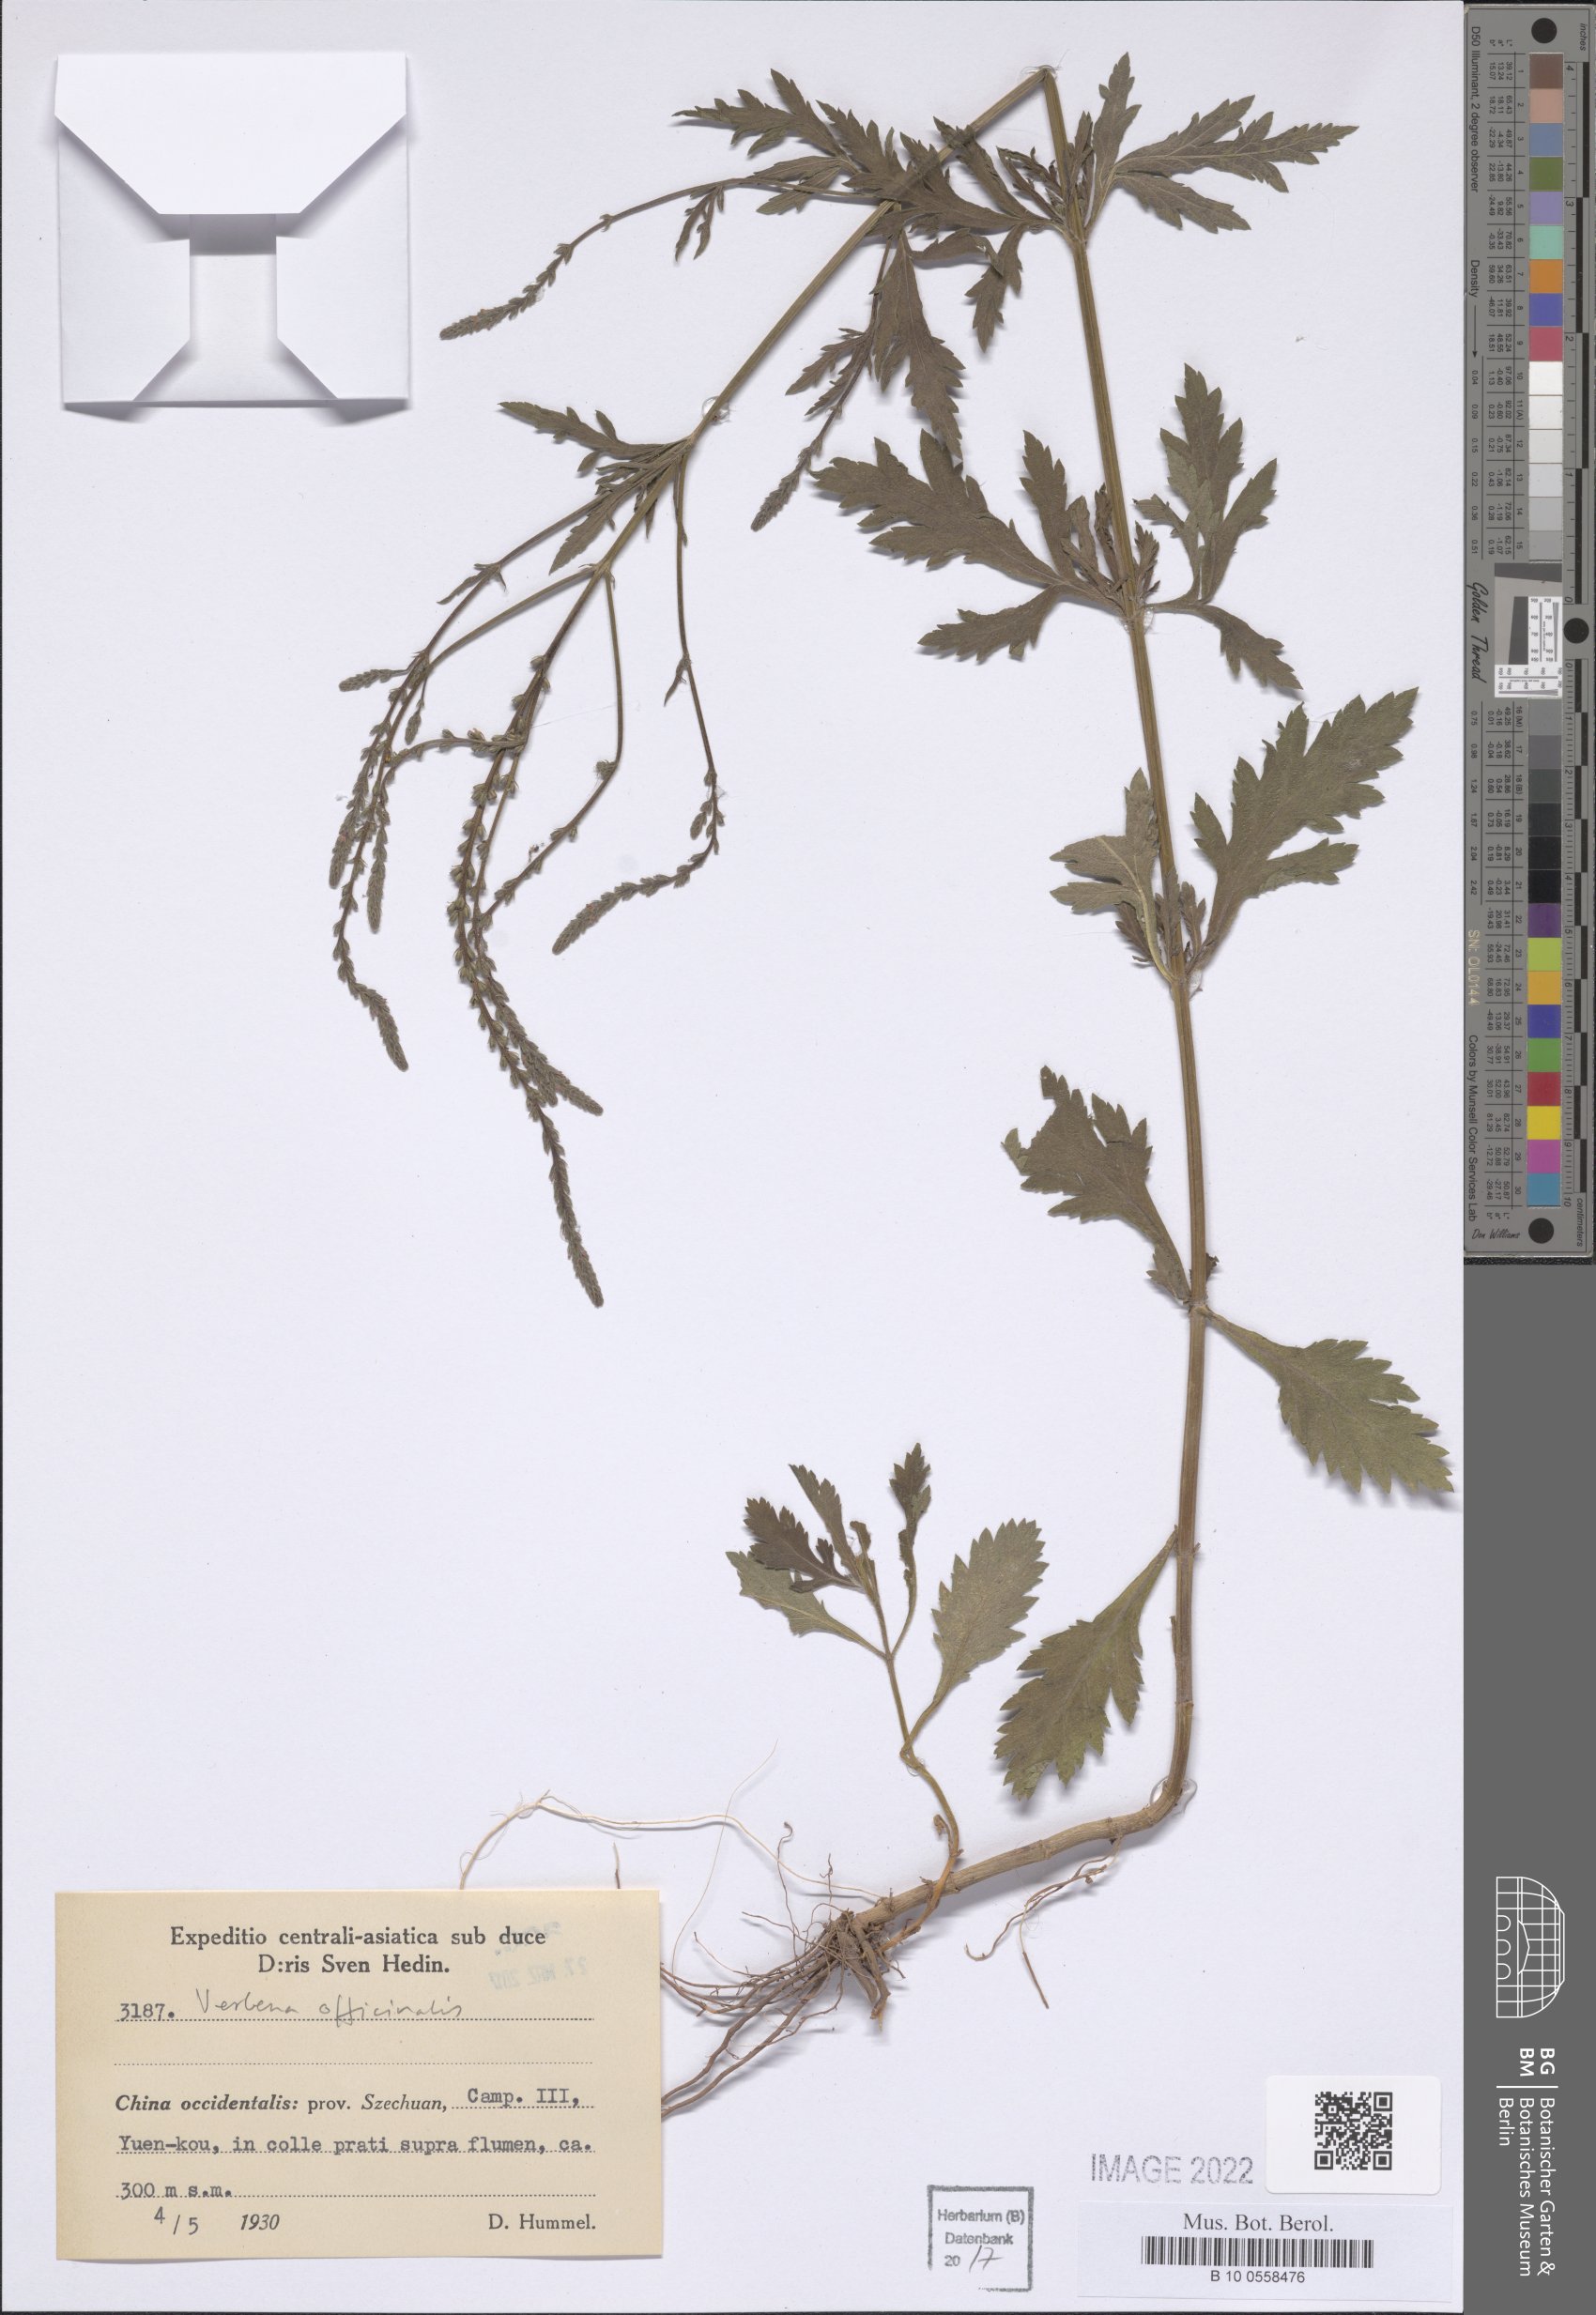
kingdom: Plantae
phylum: Tracheophyta
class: Magnoliopsida
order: Lamiales
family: Verbenaceae
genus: Verbena
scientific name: Verbena officinalis
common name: Vervain
